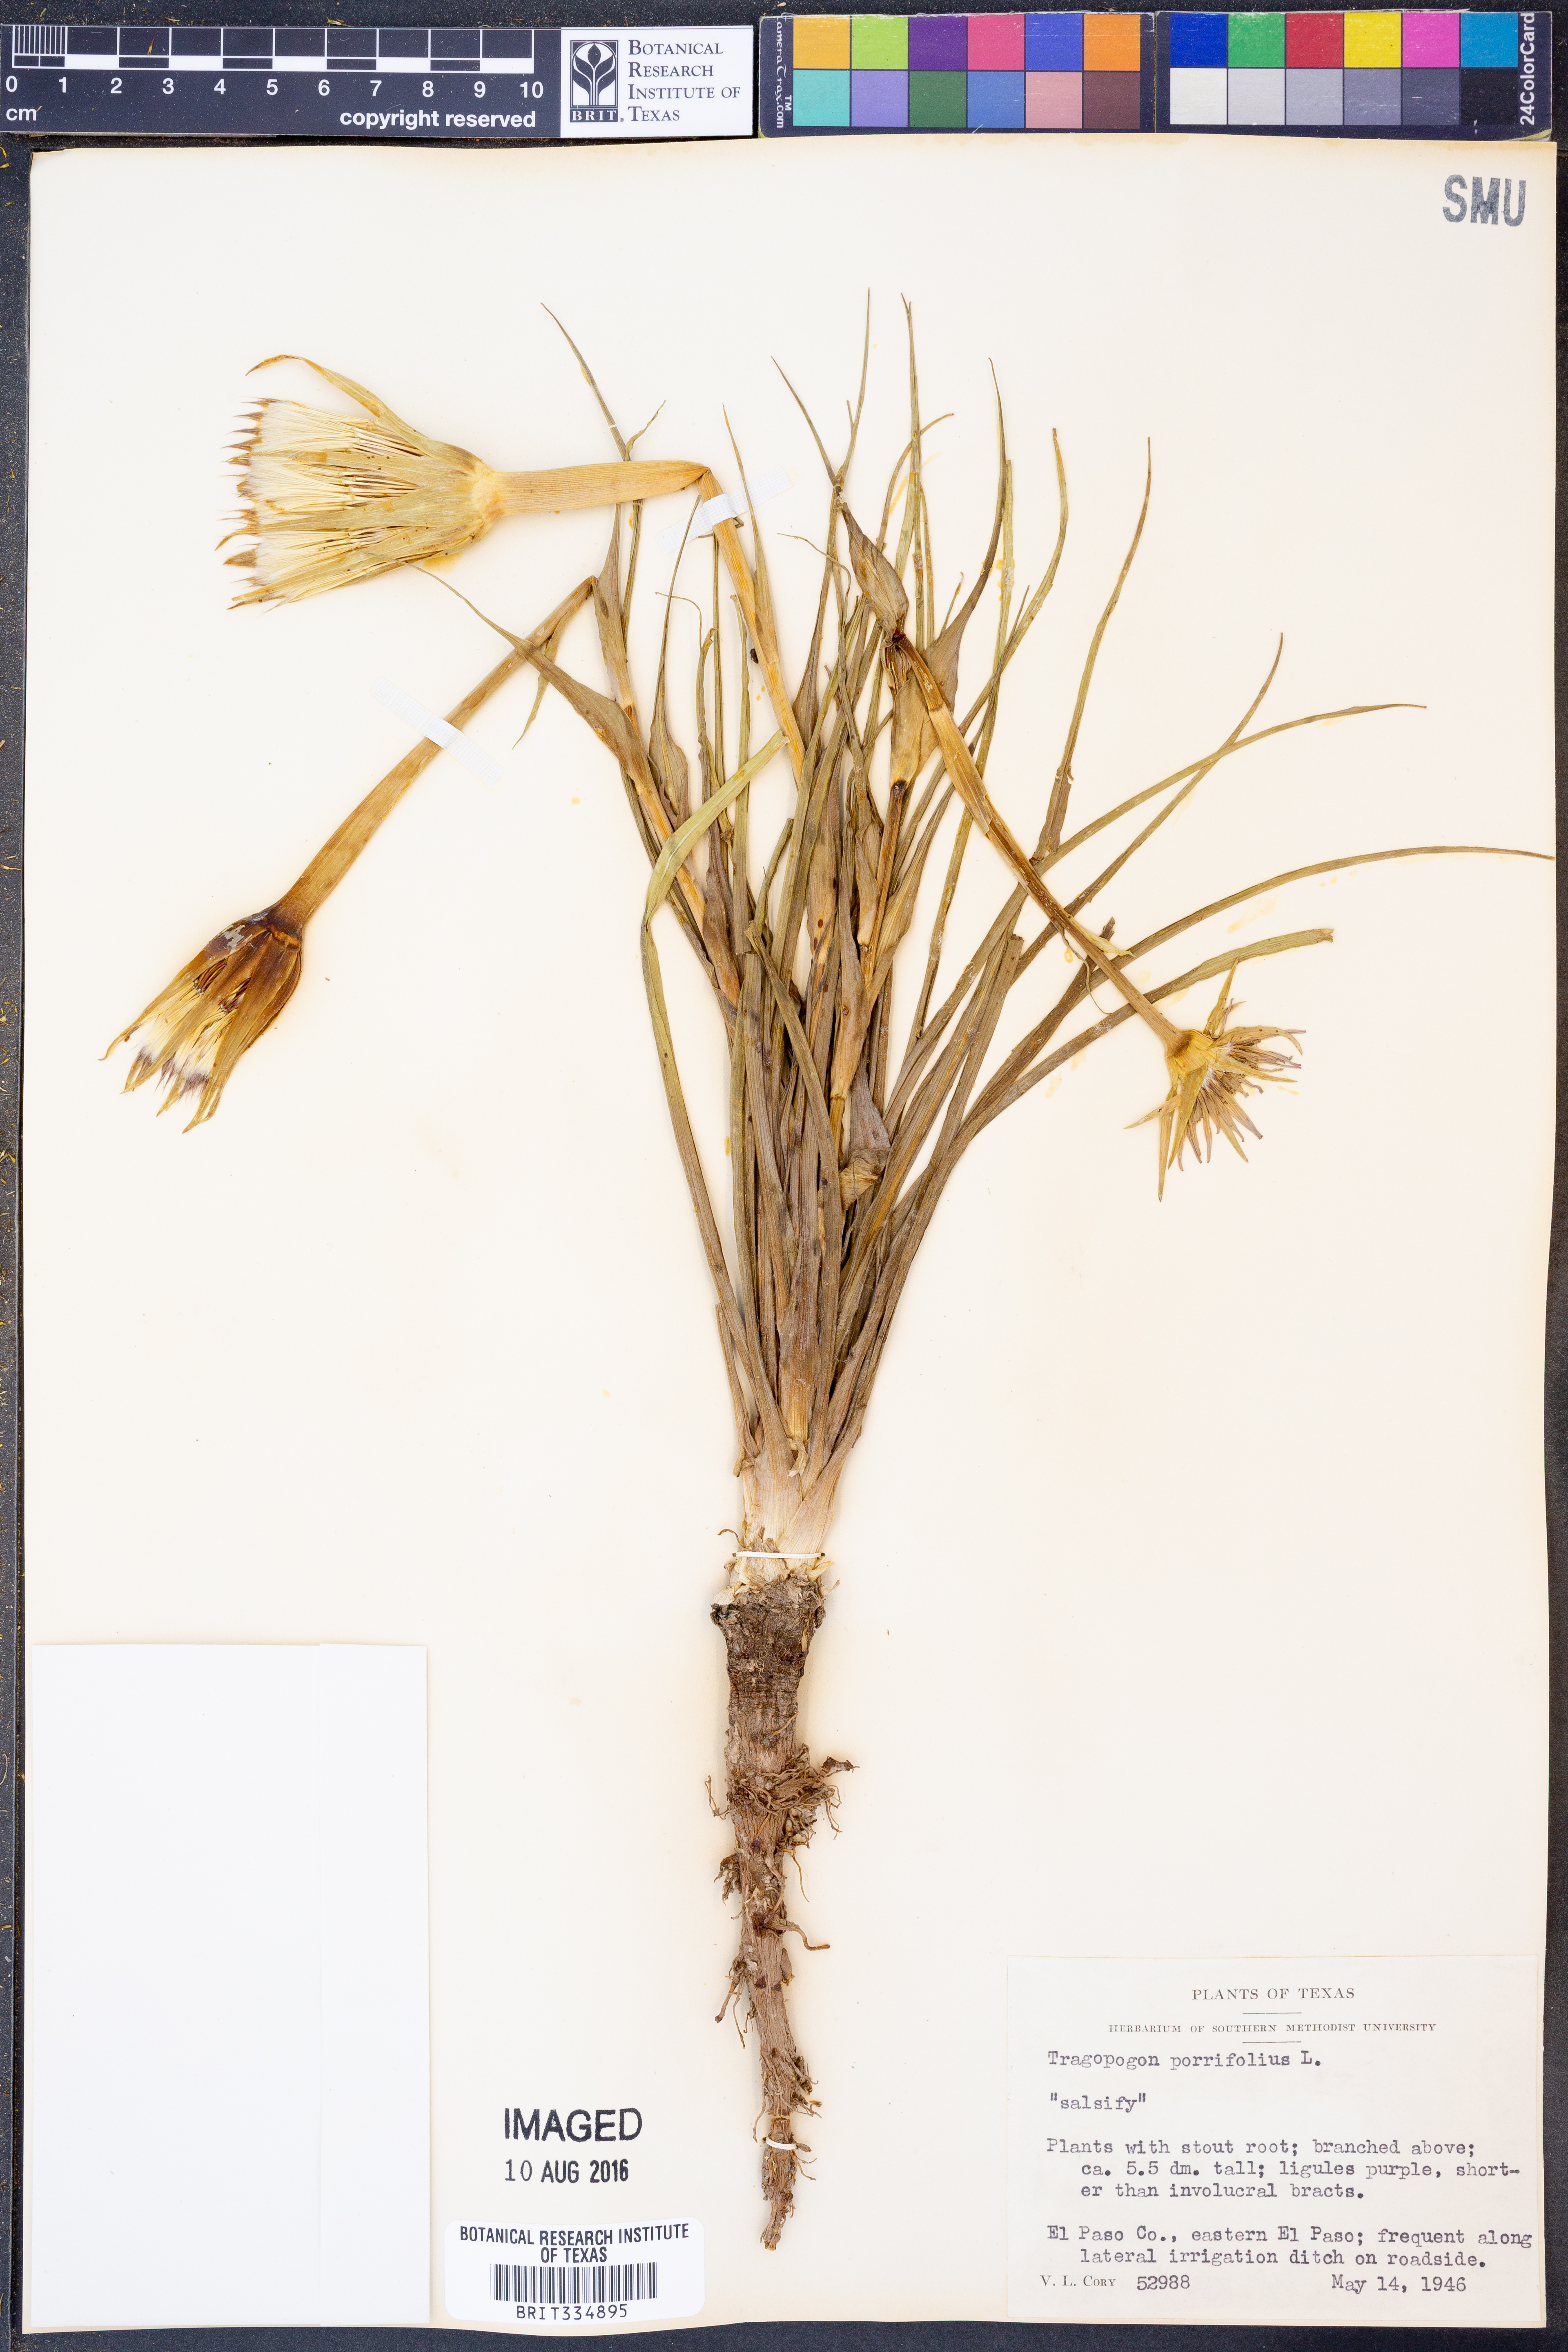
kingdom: Plantae
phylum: Tracheophyta
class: Magnoliopsida
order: Asterales
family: Asteraceae
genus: Tragopogon
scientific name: Tragopogon porrifolius
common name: Salsify
